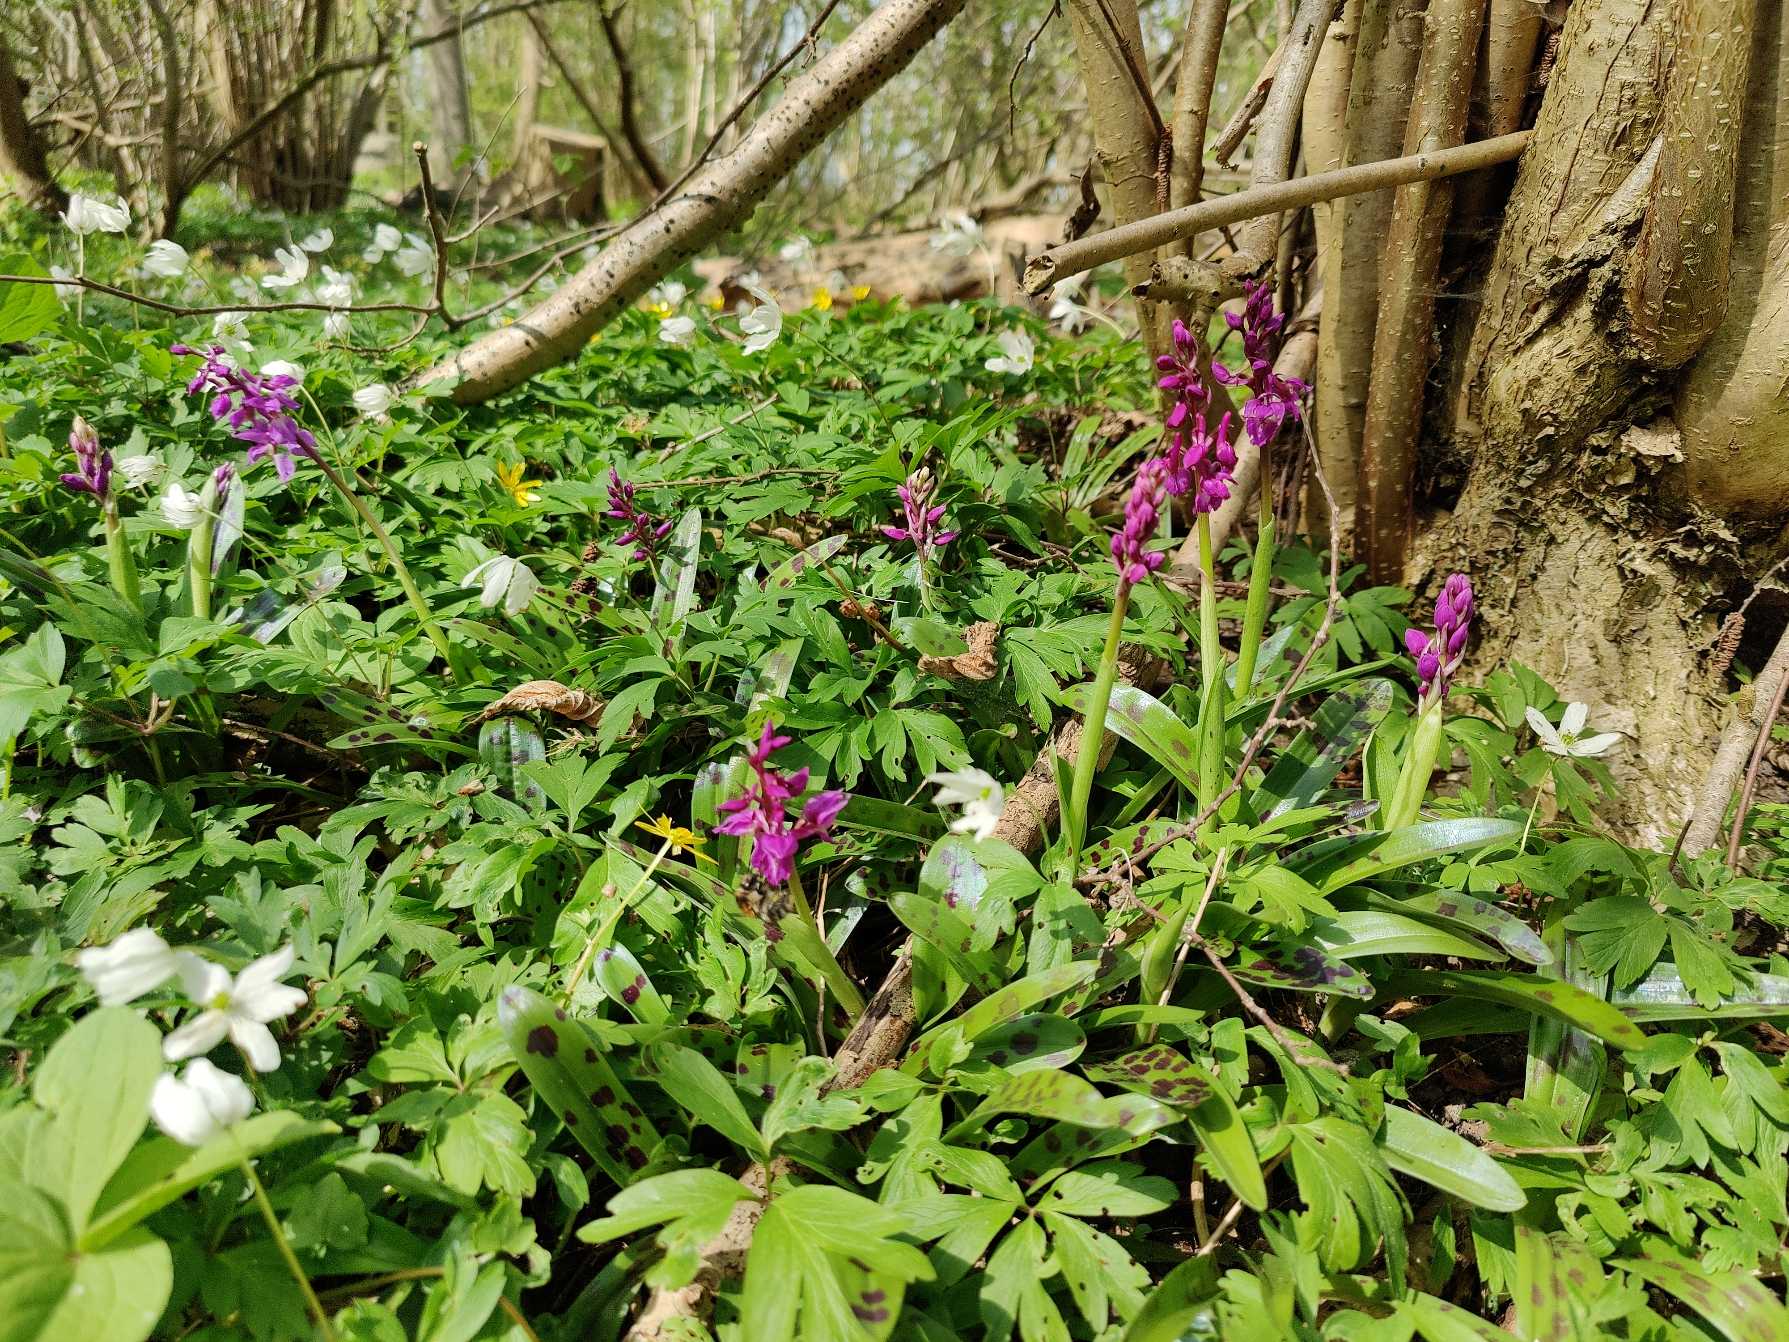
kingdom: Plantae
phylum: Tracheophyta
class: Liliopsida
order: Asparagales
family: Orchidaceae
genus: Orchis
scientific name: Orchis mascula
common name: Tyndakset gøgeurt
